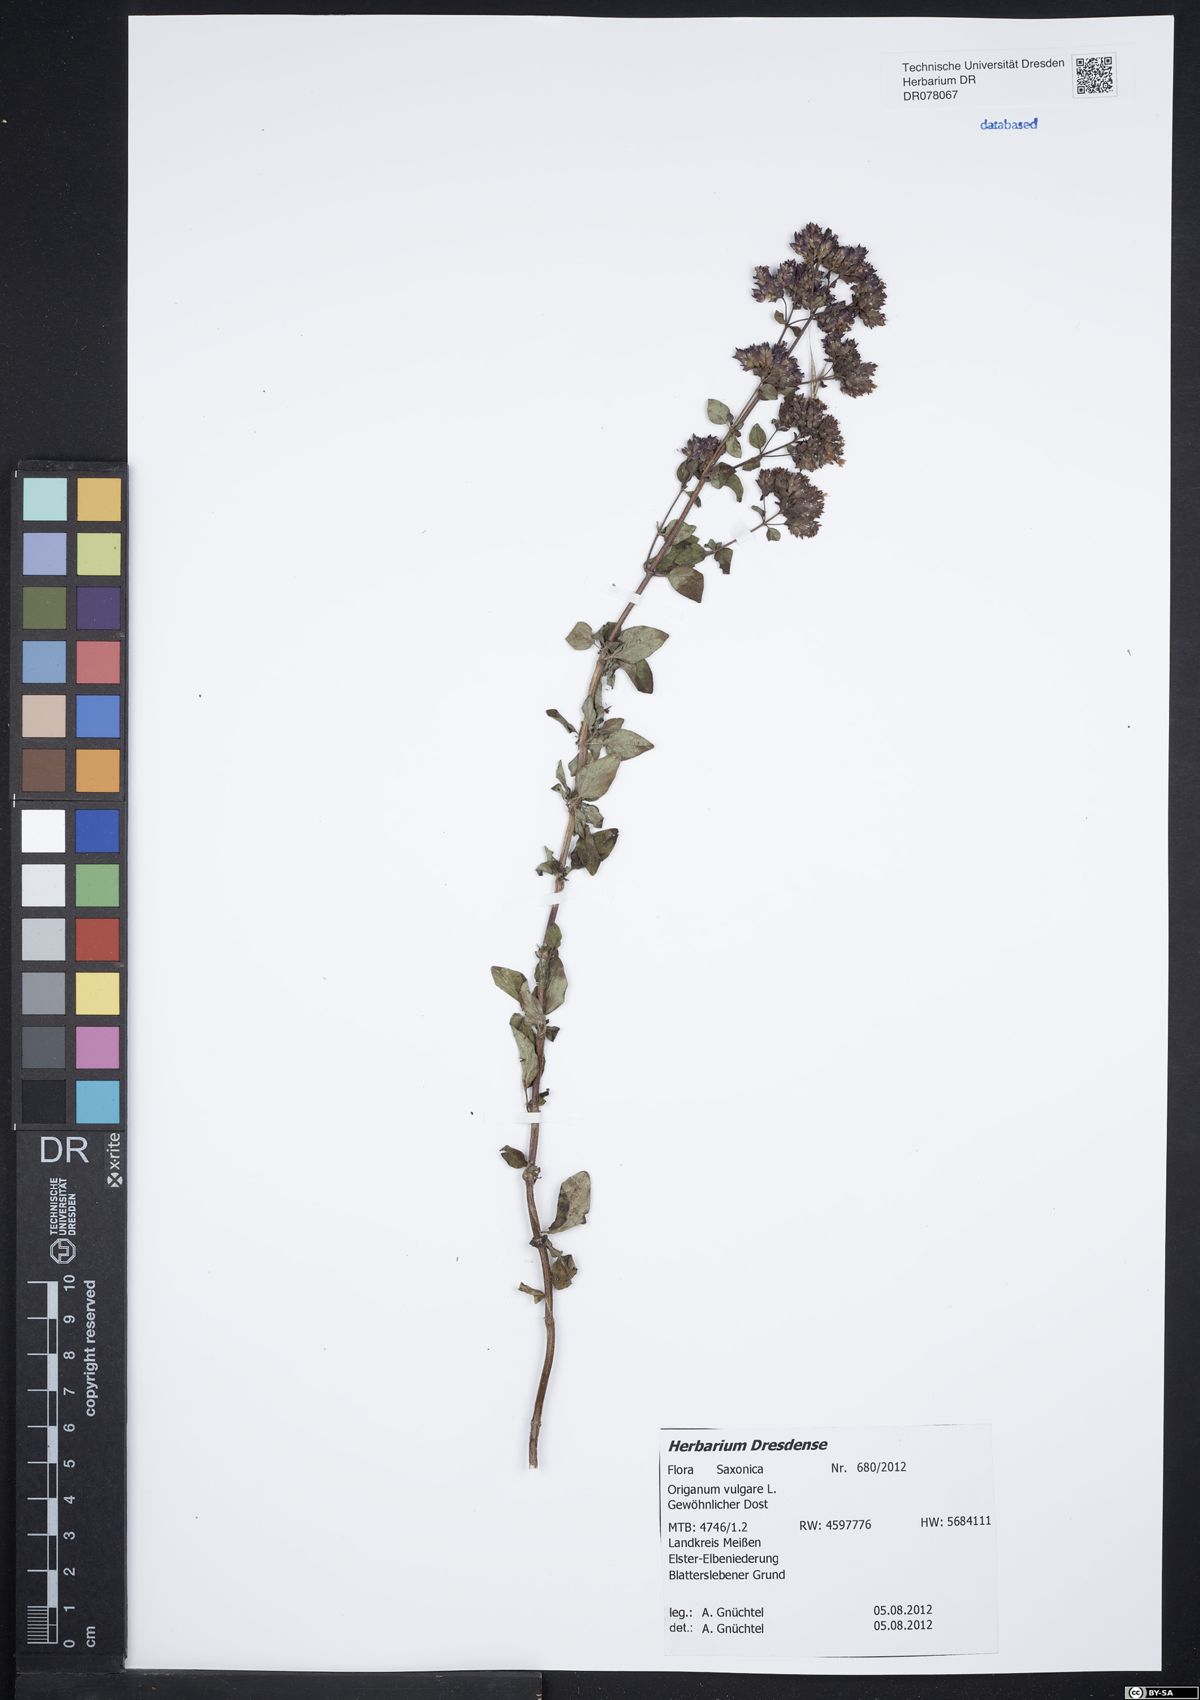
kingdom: Plantae
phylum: Tracheophyta
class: Magnoliopsida
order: Lamiales
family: Lamiaceae
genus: Origanum
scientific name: Origanum vulgare
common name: Wild marjoram
